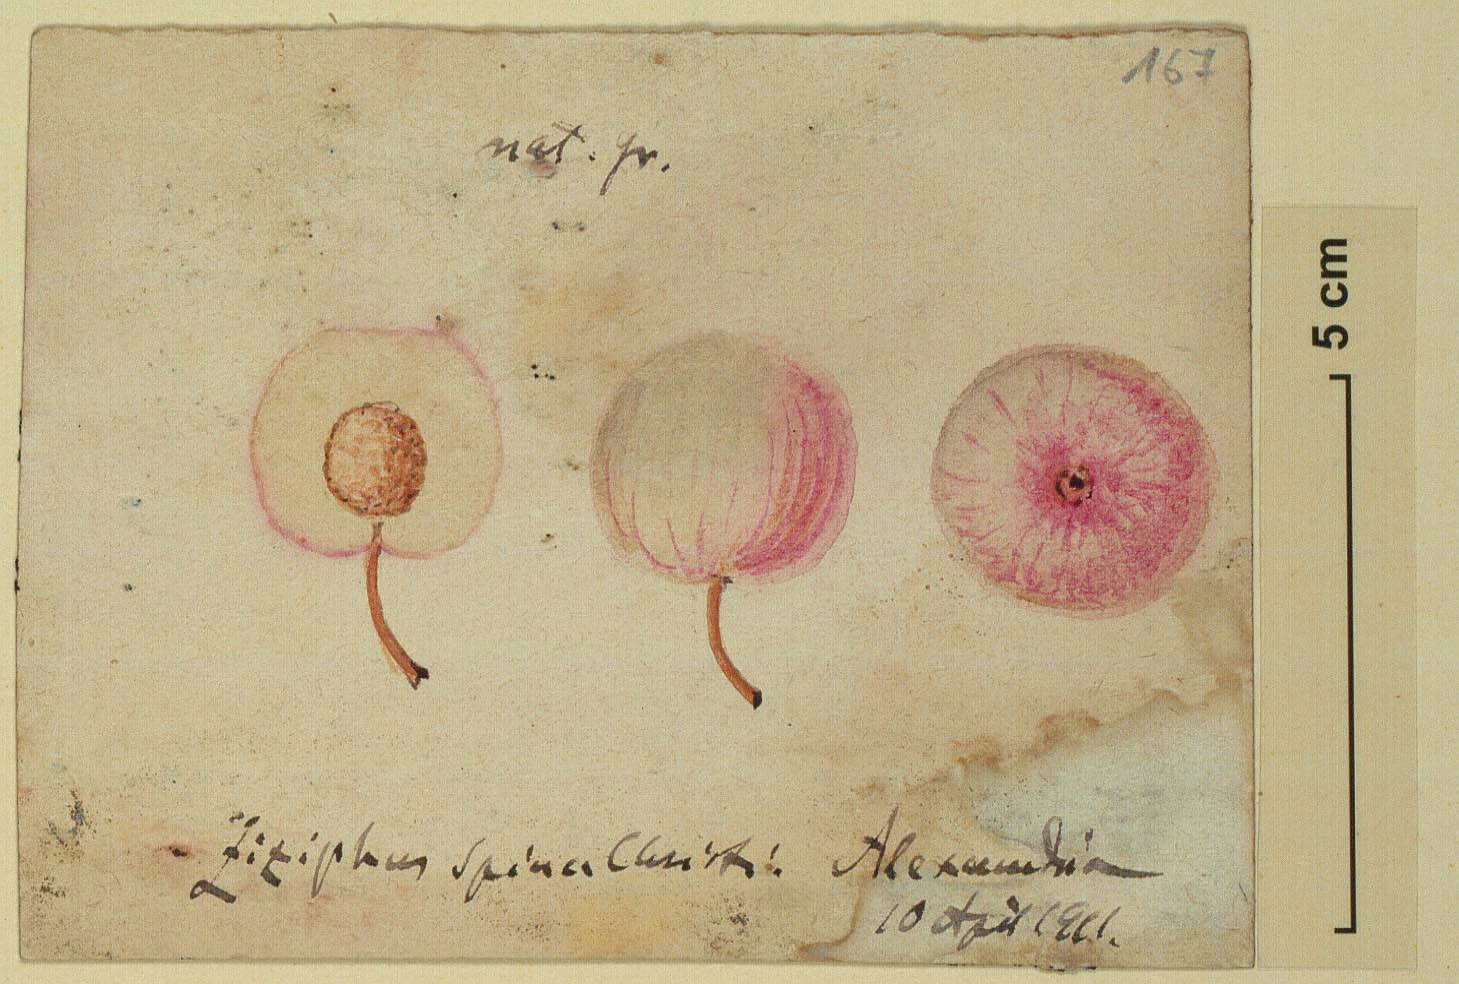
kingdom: Plantae
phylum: Tracheophyta
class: Magnoliopsida
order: Rosales
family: Rhamnaceae
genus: Ziziphus
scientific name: Ziziphus spina-christi
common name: Syrian christ-thorn
